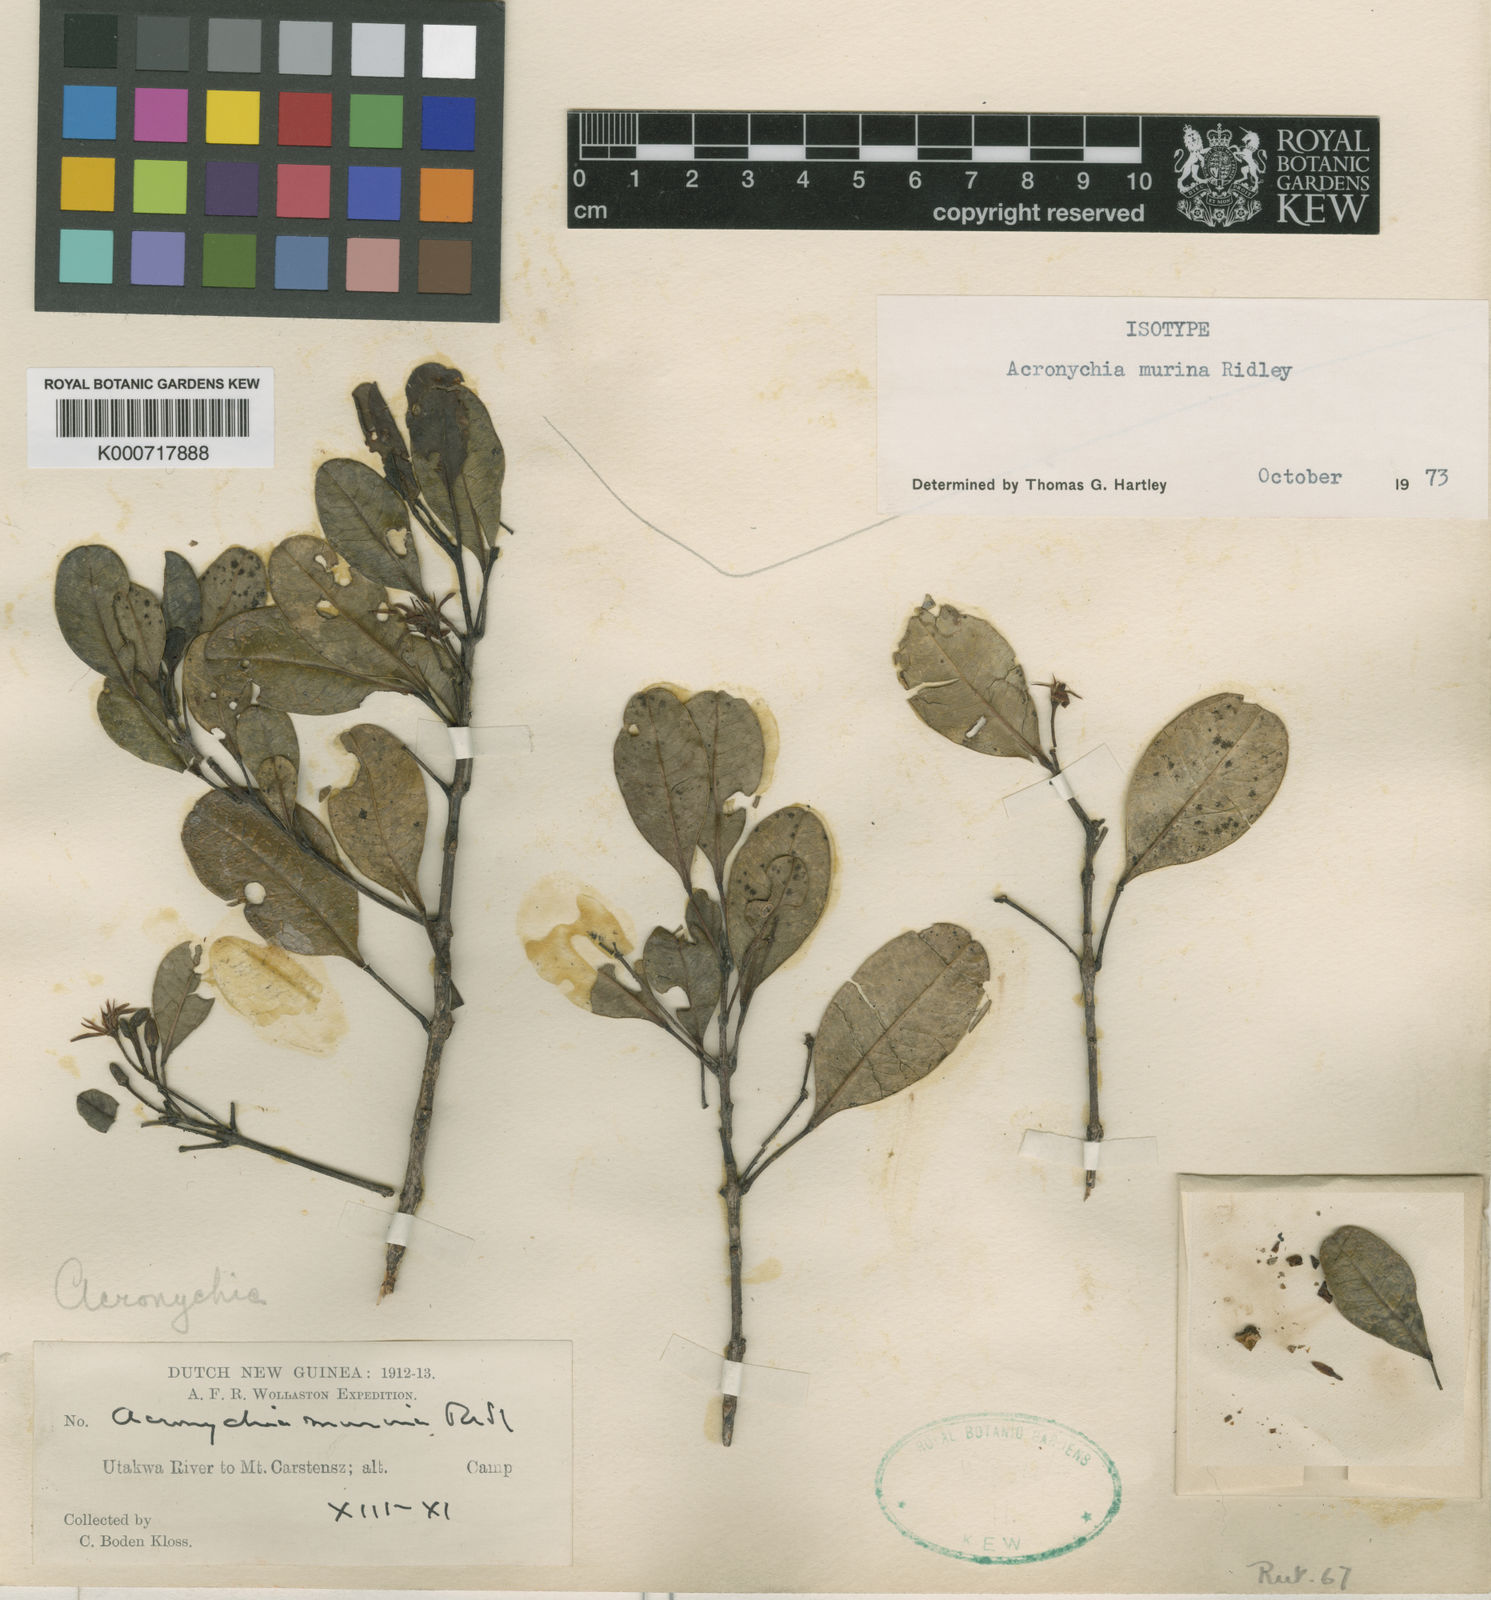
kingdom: Plantae
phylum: Tracheophyta
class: Magnoliopsida
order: Sapindales
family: Rutaceae
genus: Acronychia
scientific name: Acronychia murina
